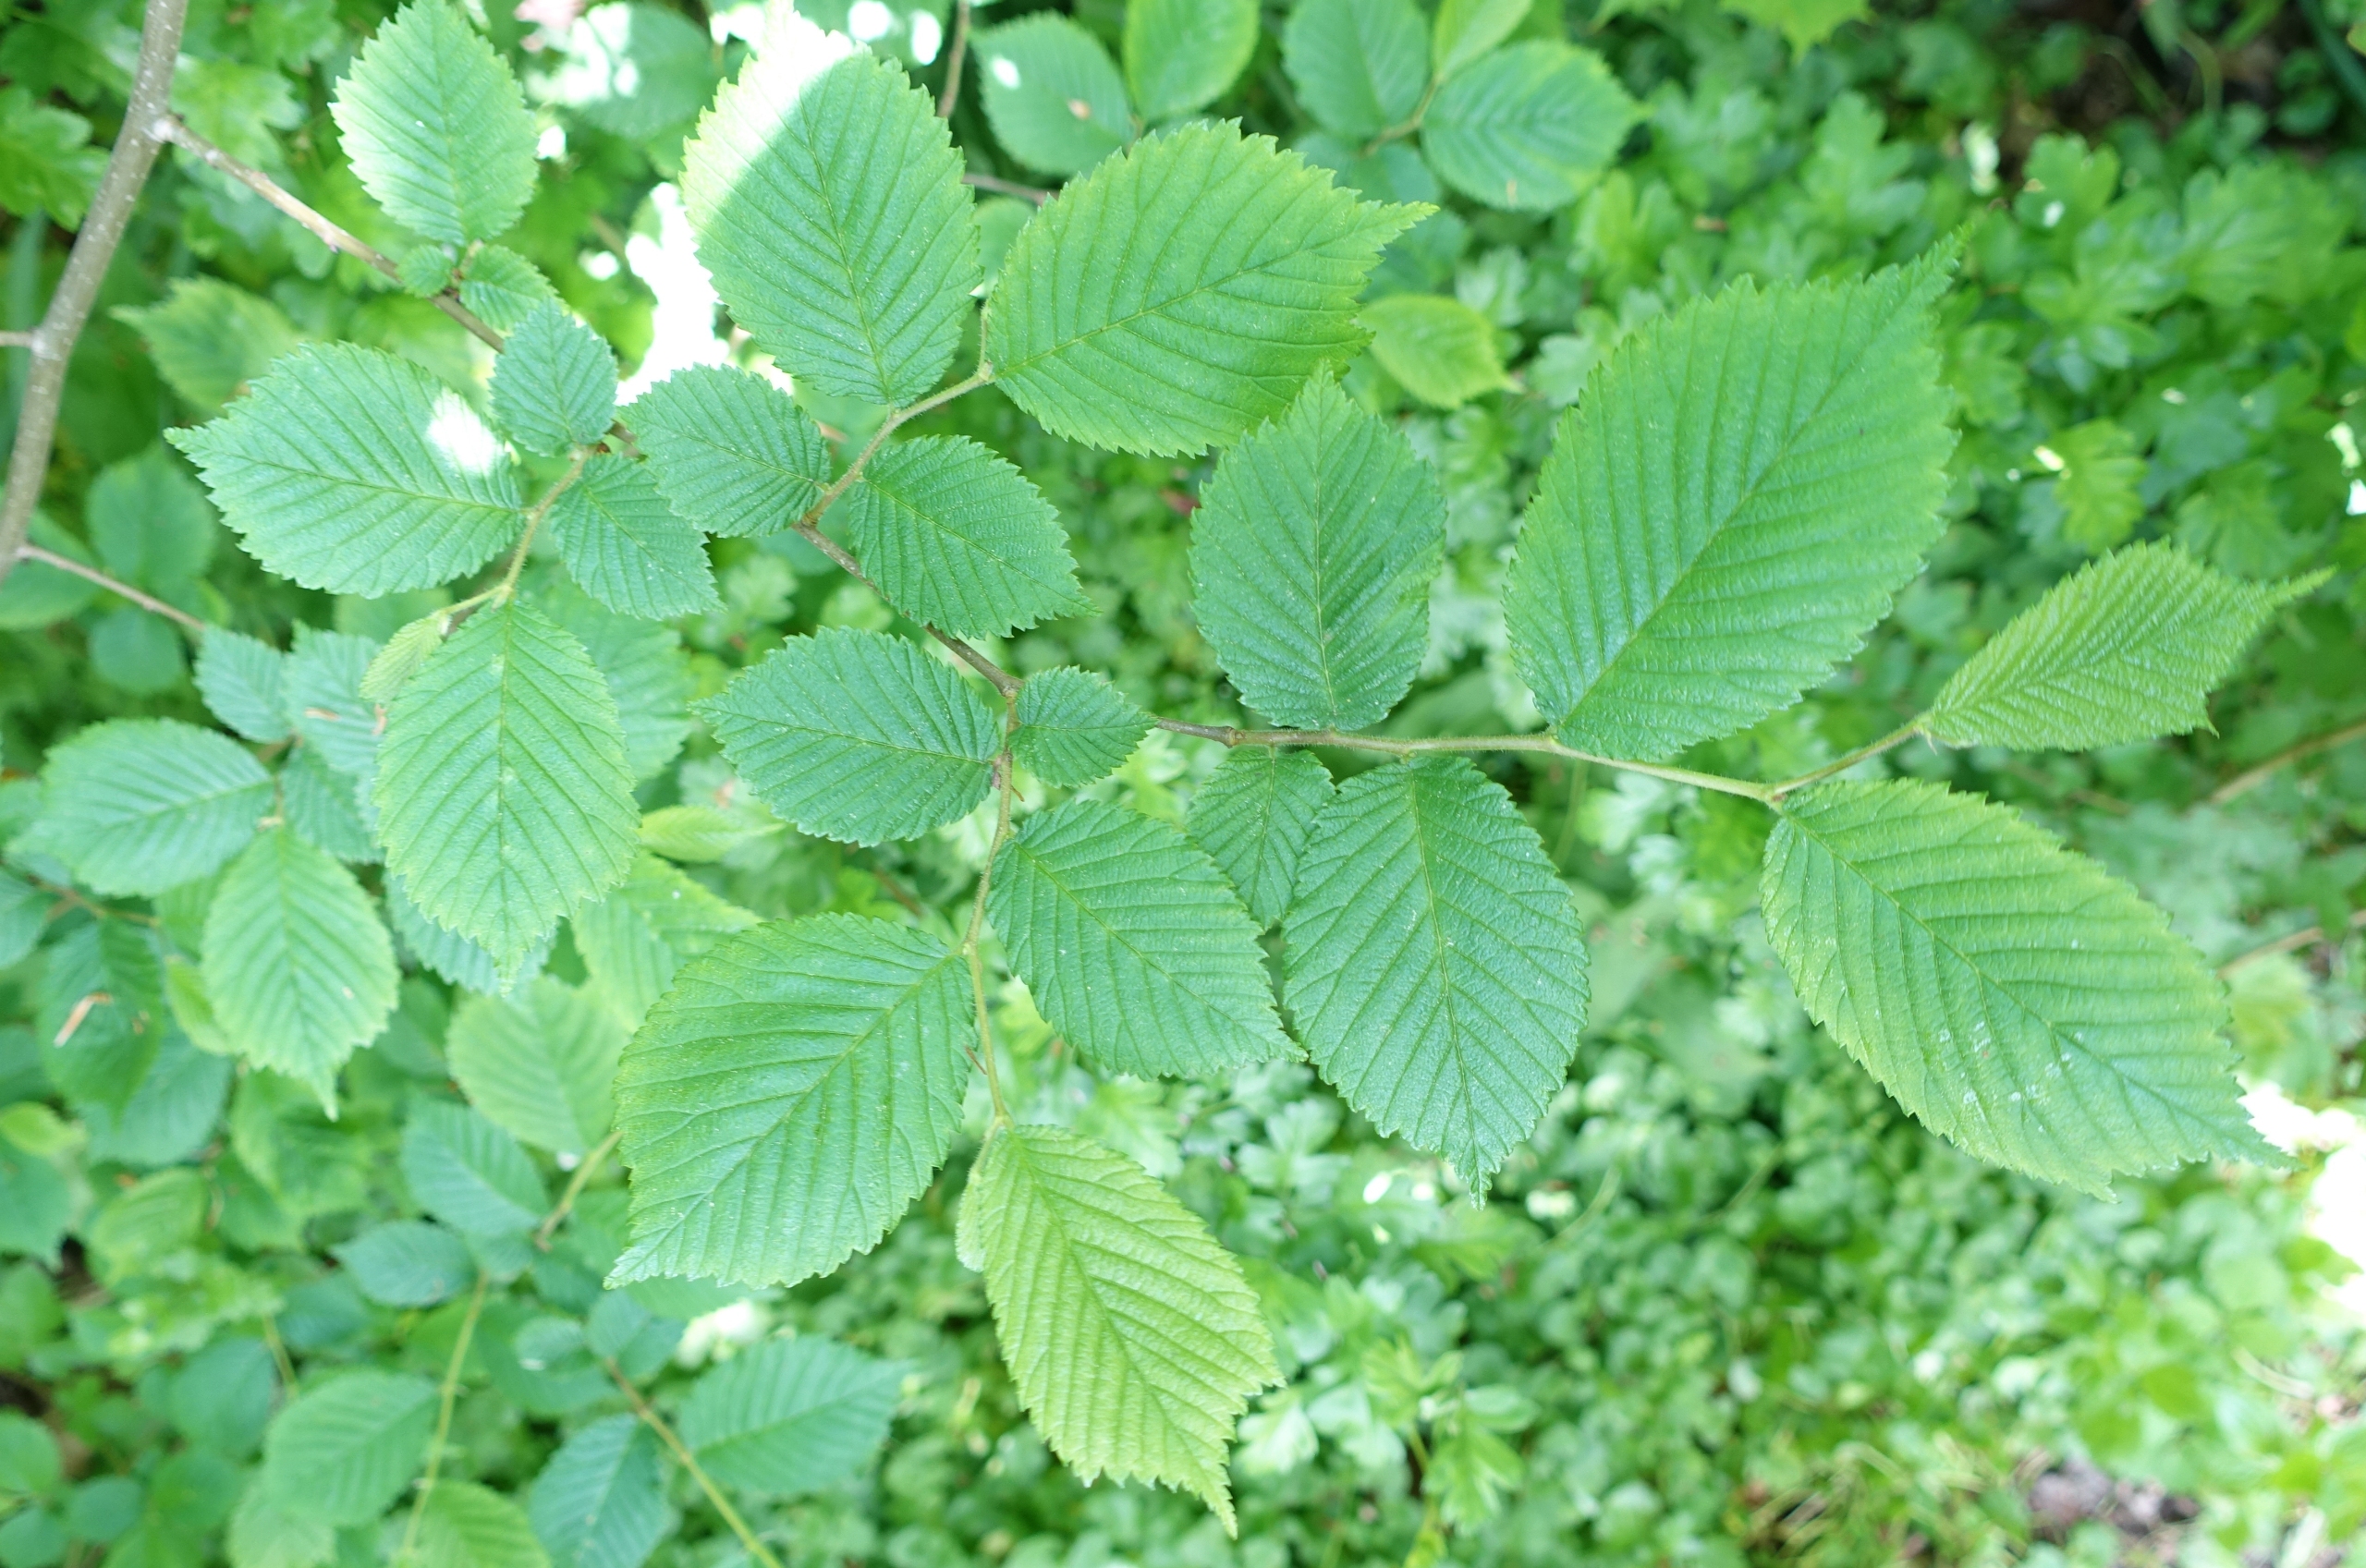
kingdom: Plantae
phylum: Tracheophyta
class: Magnoliopsida
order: Rosales
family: Ulmaceae
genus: Ulmus
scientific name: Ulmus glabra
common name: Skov-elm/storbladet elm
